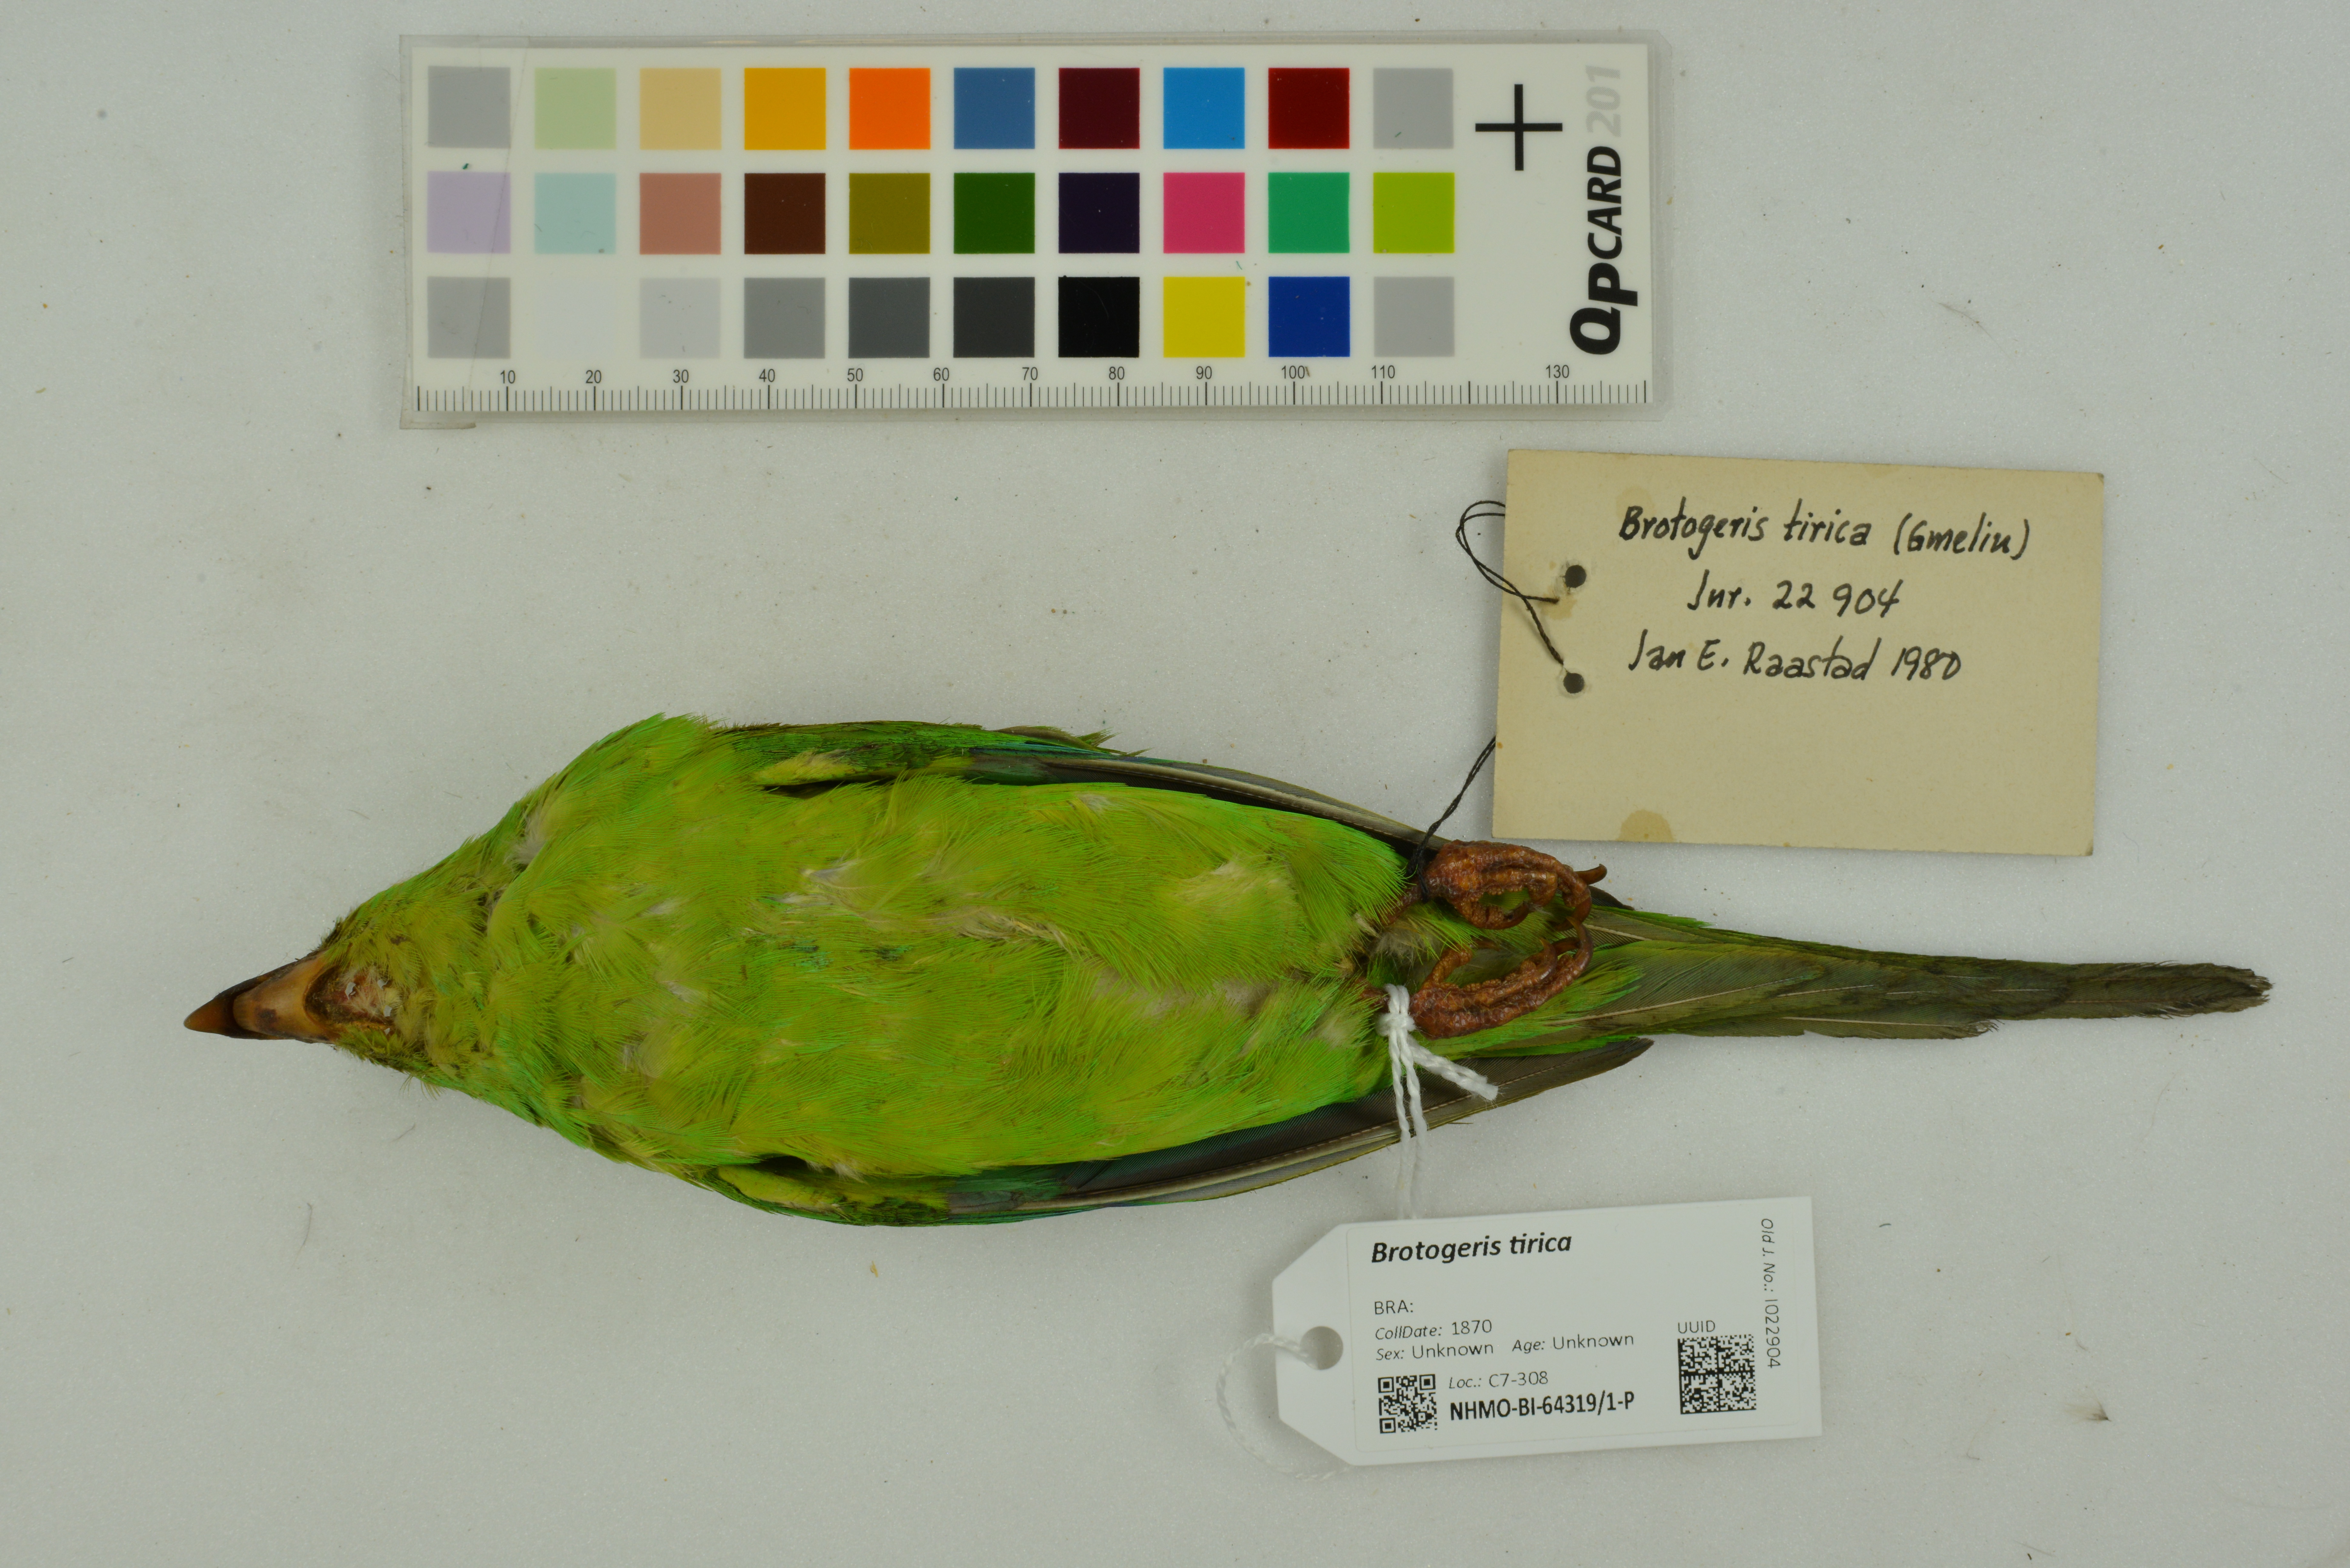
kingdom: Animalia
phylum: Chordata
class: Aves
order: Psittaciformes
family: Psittacidae
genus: Brotogeris
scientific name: Brotogeris tirica
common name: Plain parakeet
